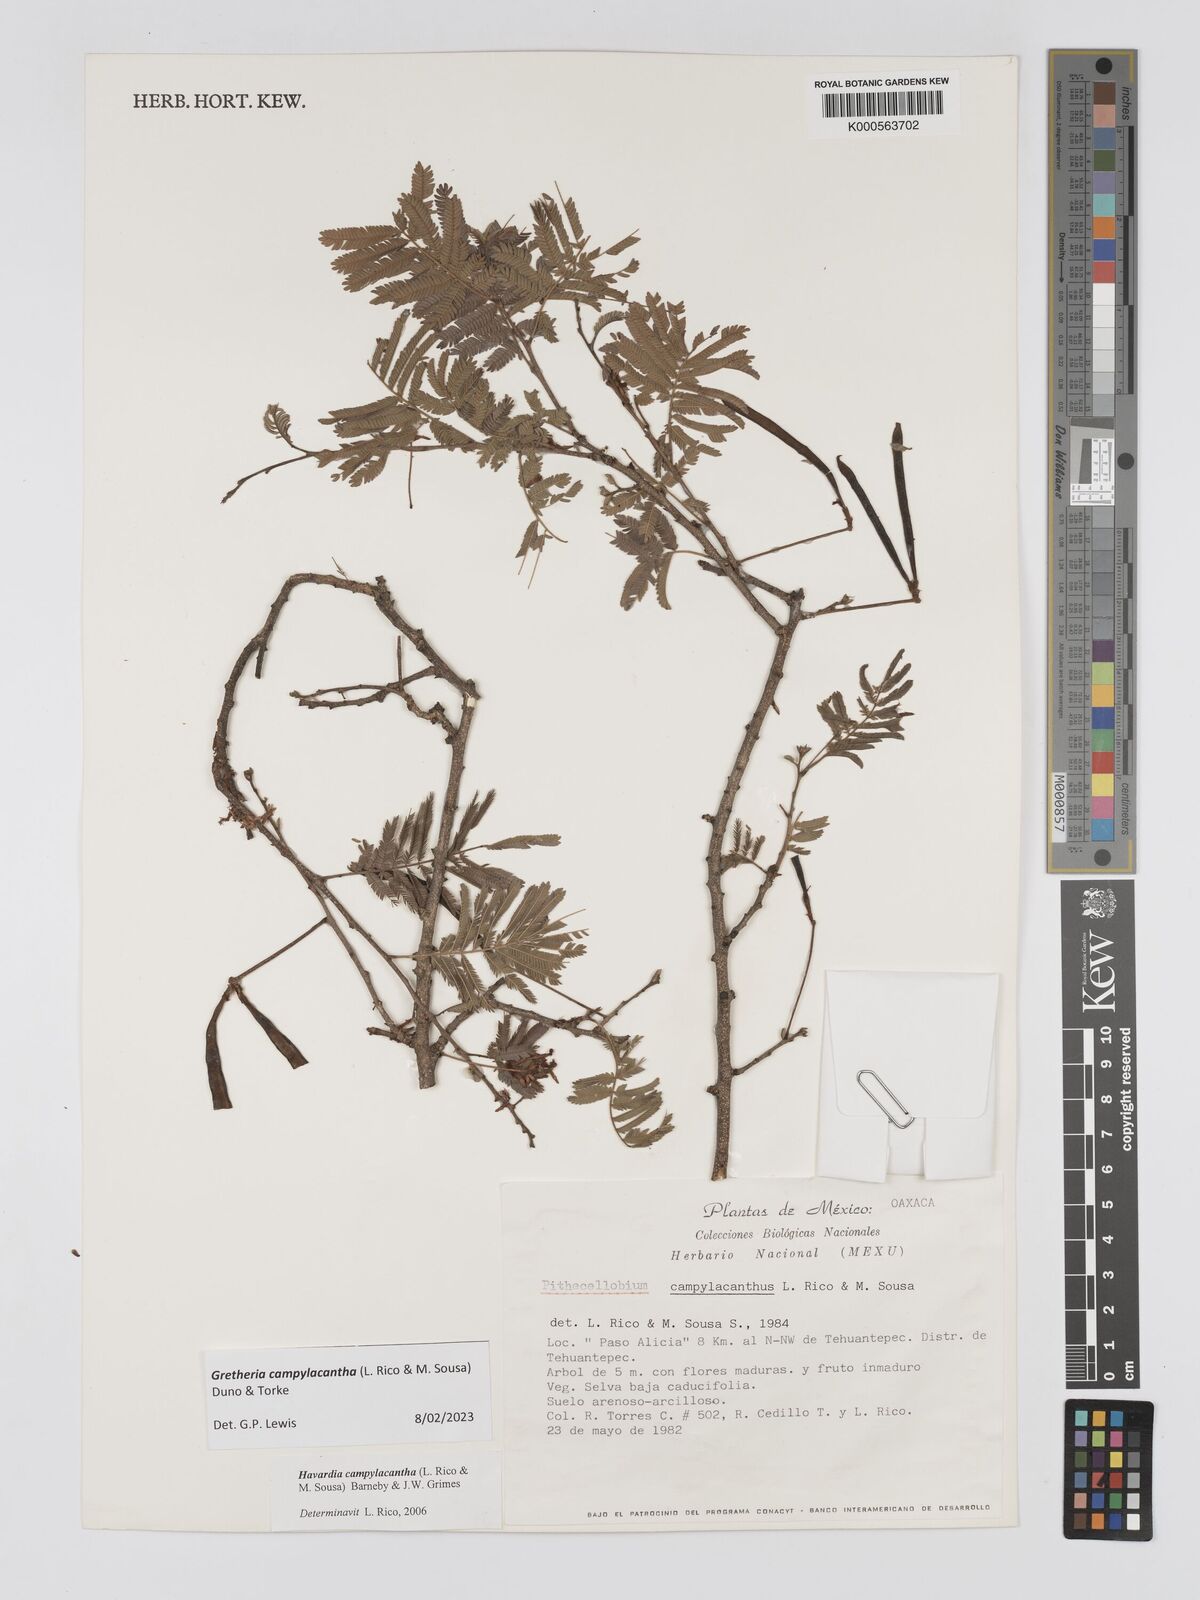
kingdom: Plantae
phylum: Tracheophyta
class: Magnoliopsida
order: Fabales
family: Fabaceae
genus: Havardia
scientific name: Havardia campylacantha
